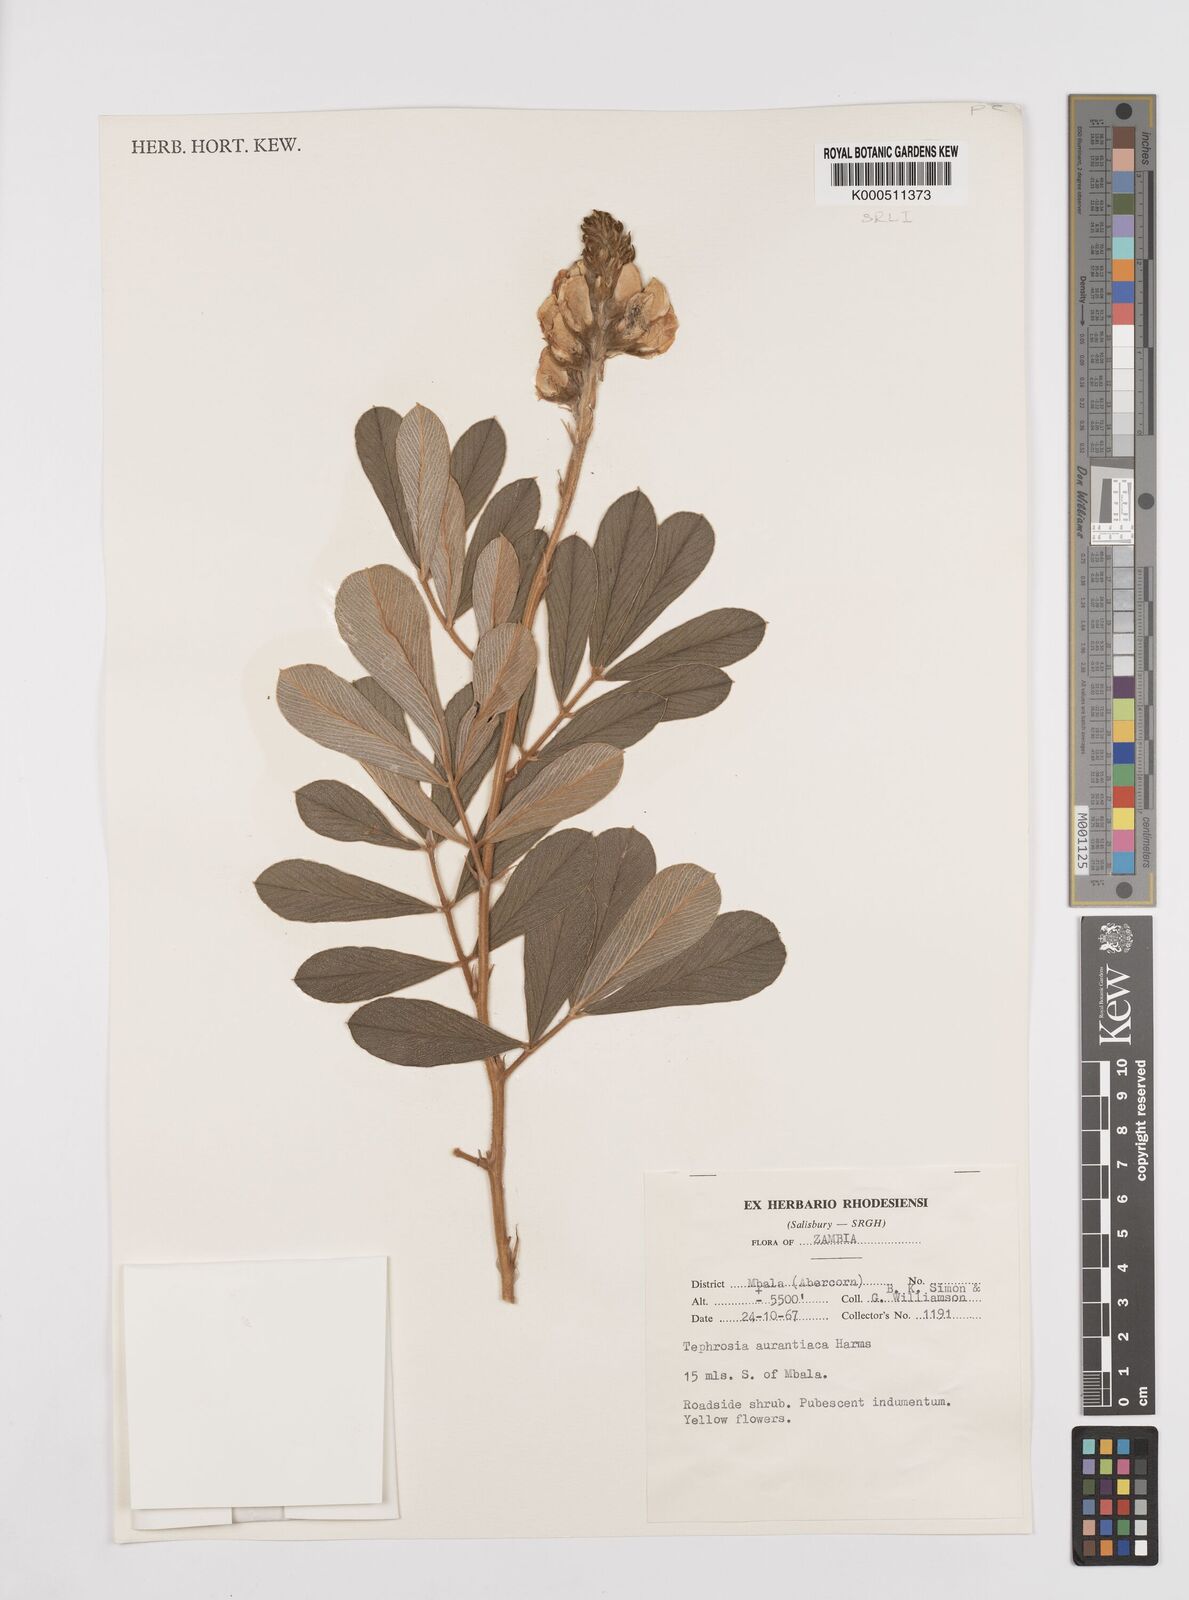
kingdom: Plantae
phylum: Tracheophyta
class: Magnoliopsida
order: Fabales
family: Fabaceae
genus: Tephrosia
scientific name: Tephrosia aurantiaca
